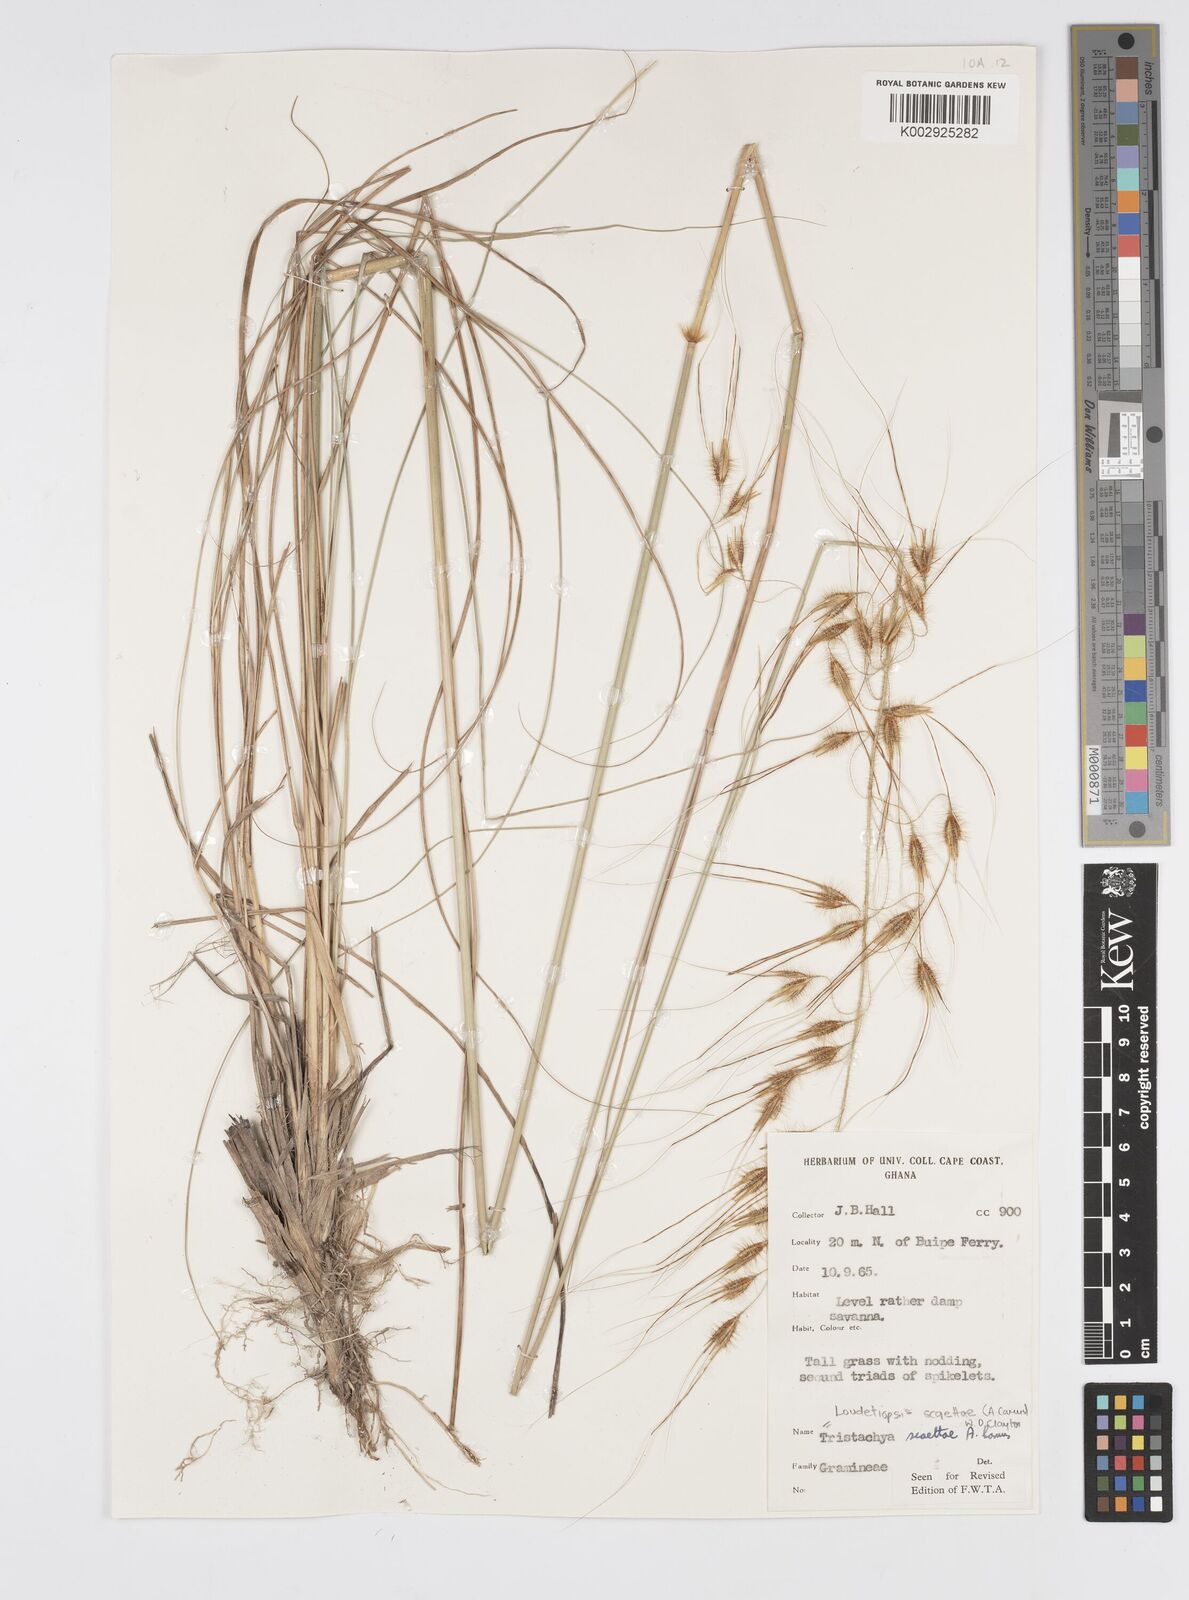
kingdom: Plantae
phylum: Tracheophyta
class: Liliopsida
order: Poales
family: Poaceae
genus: Loudetiopsis
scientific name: Loudetiopsis scaettae
